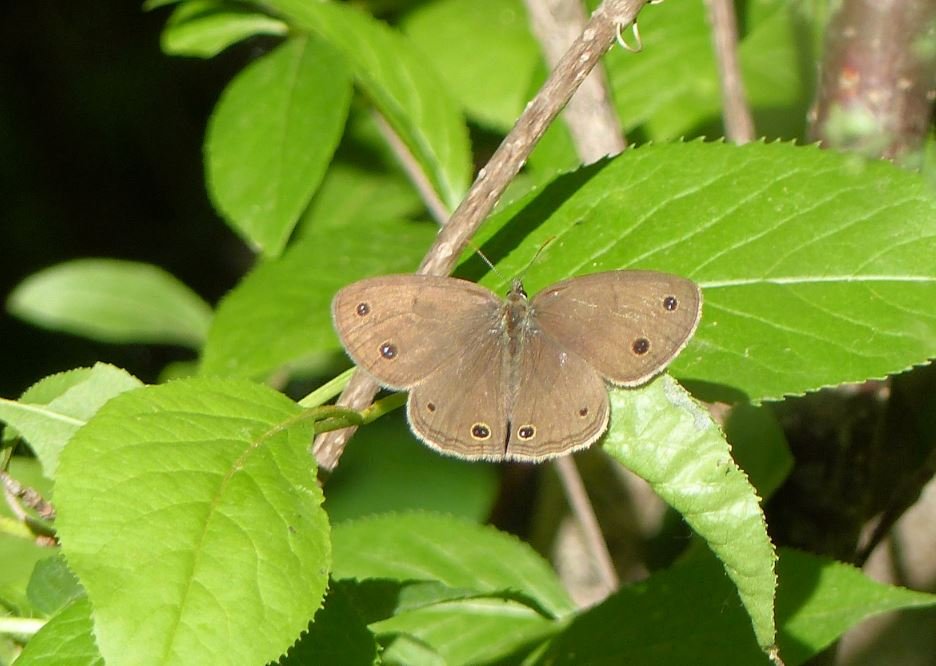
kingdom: Animalia
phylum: Arthropoda
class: Insecta
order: Lepidoptera
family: Nymphalidae
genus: Euptychia
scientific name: Euptychia cymela
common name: Little Wood Satyr
